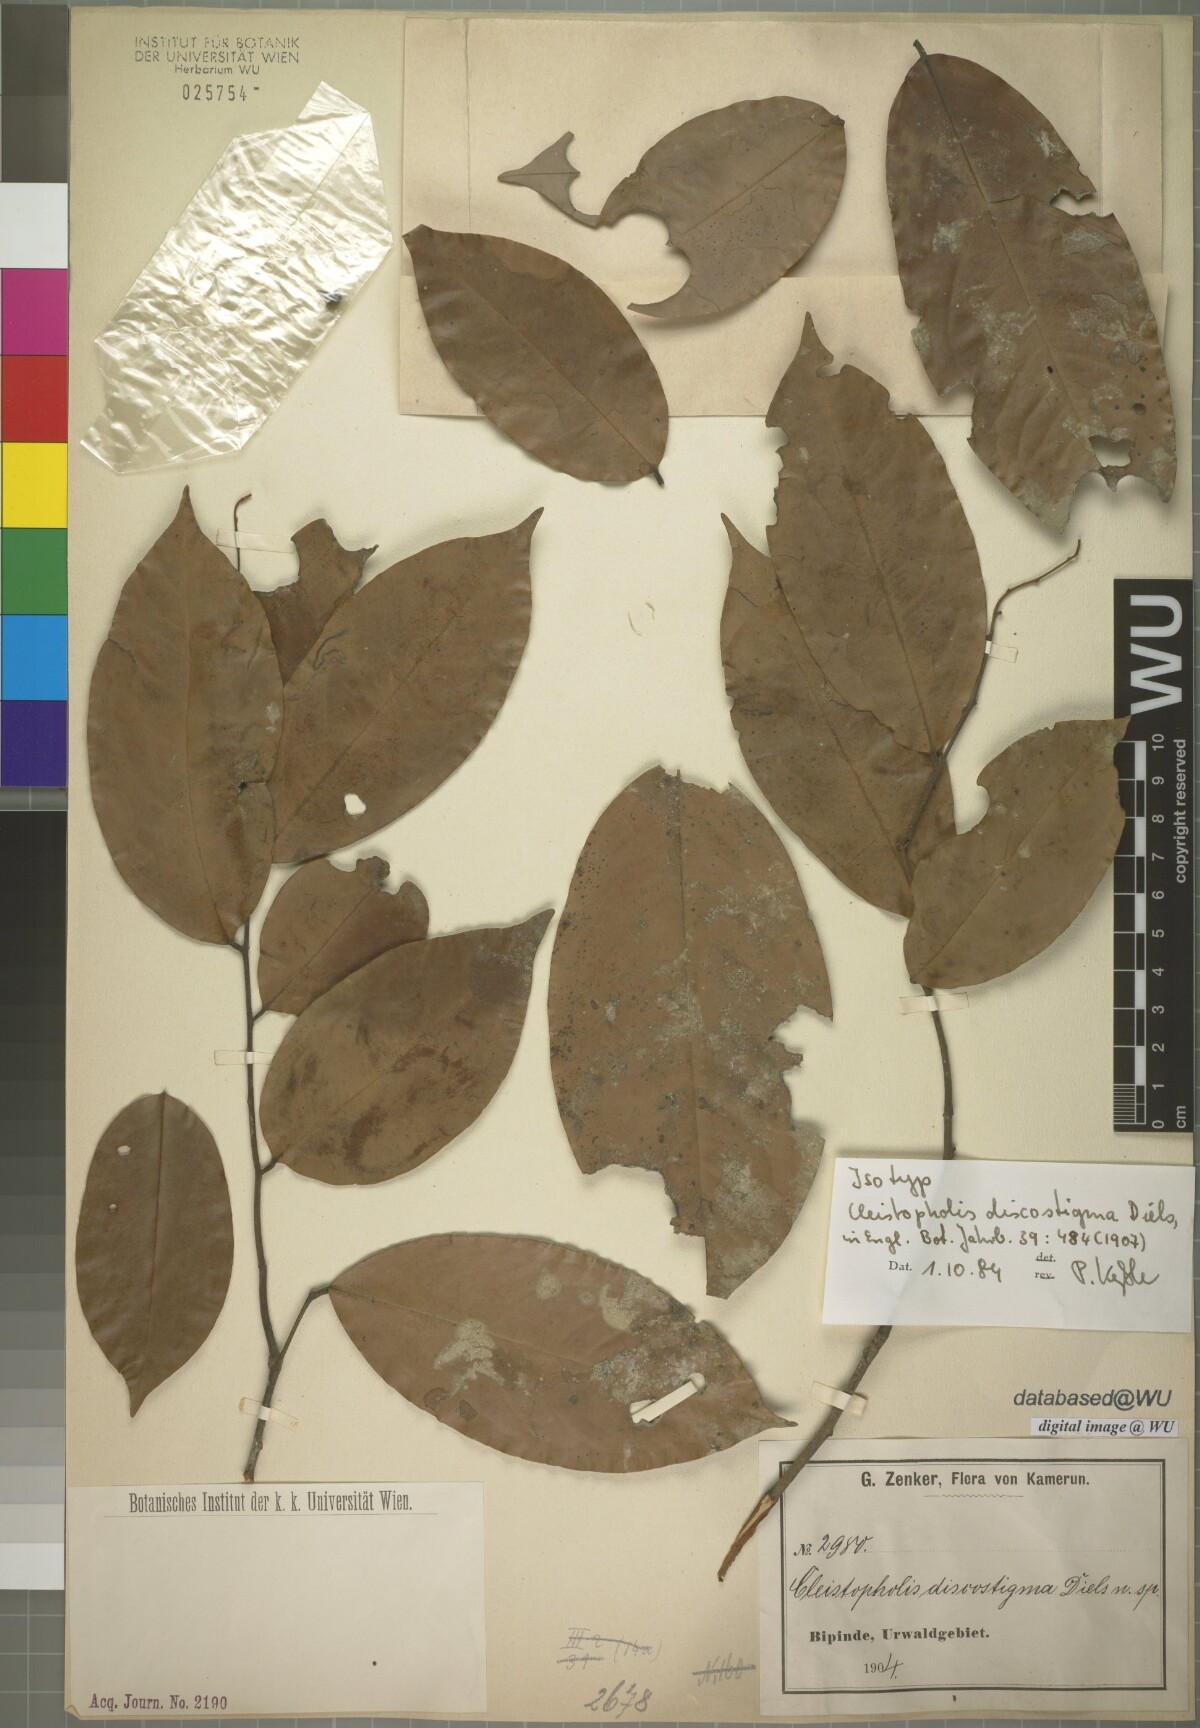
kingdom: Plantae
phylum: Tracheophyta
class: Magnoliopsida
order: Magnoliales
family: Annonaceae
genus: Friesodielsia
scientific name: Friesodielsia discostigma
